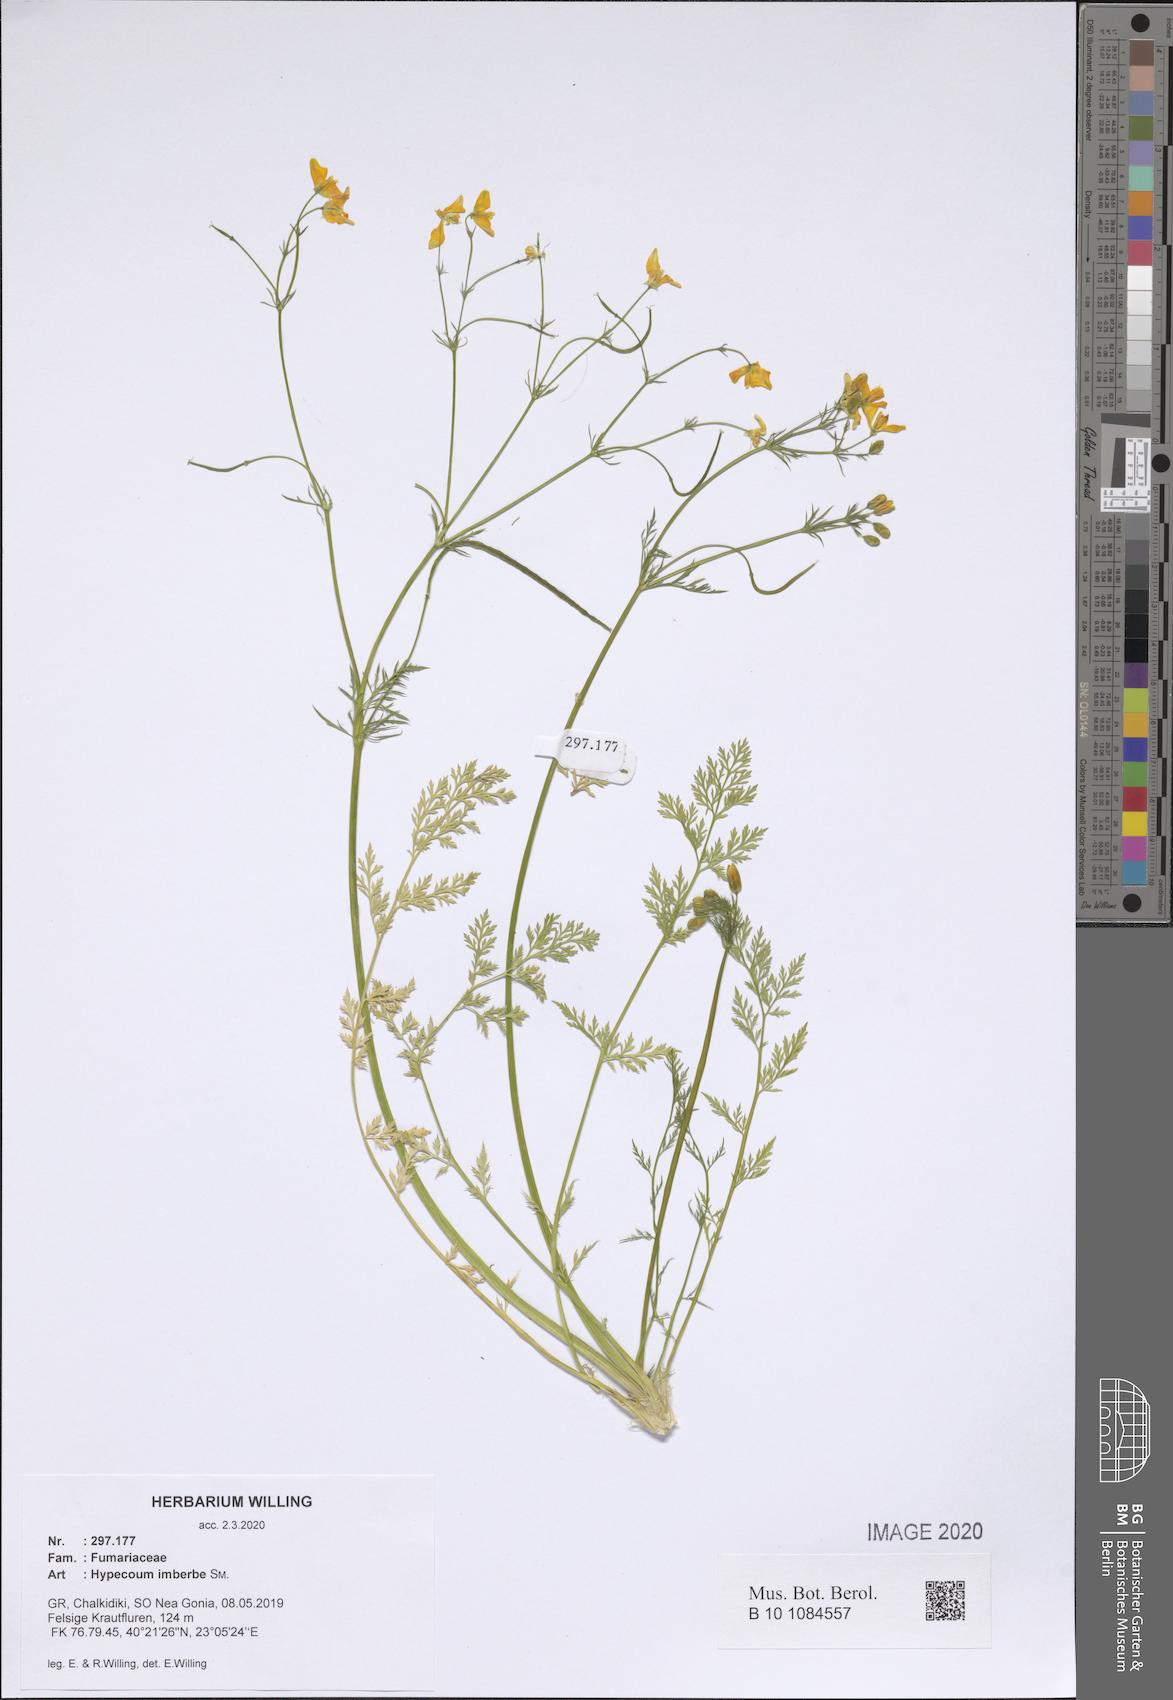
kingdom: Plantae
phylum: Tracheophyta
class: Magnoliopsida
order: Ranunculales
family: Papaveraceae
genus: Hypecoum
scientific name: Hypecoum imberbe
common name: Sicklefruit hypecoum
